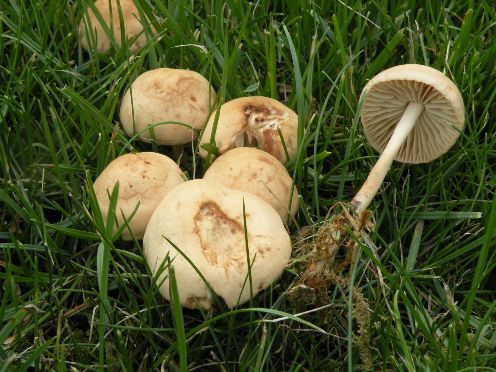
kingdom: Fungi
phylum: Basidiomycota
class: Agaricomycetes
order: Agaricales
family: Marasmiaceae
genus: Marasmius
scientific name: Marasmius oreades
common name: elledans-bruskhat
